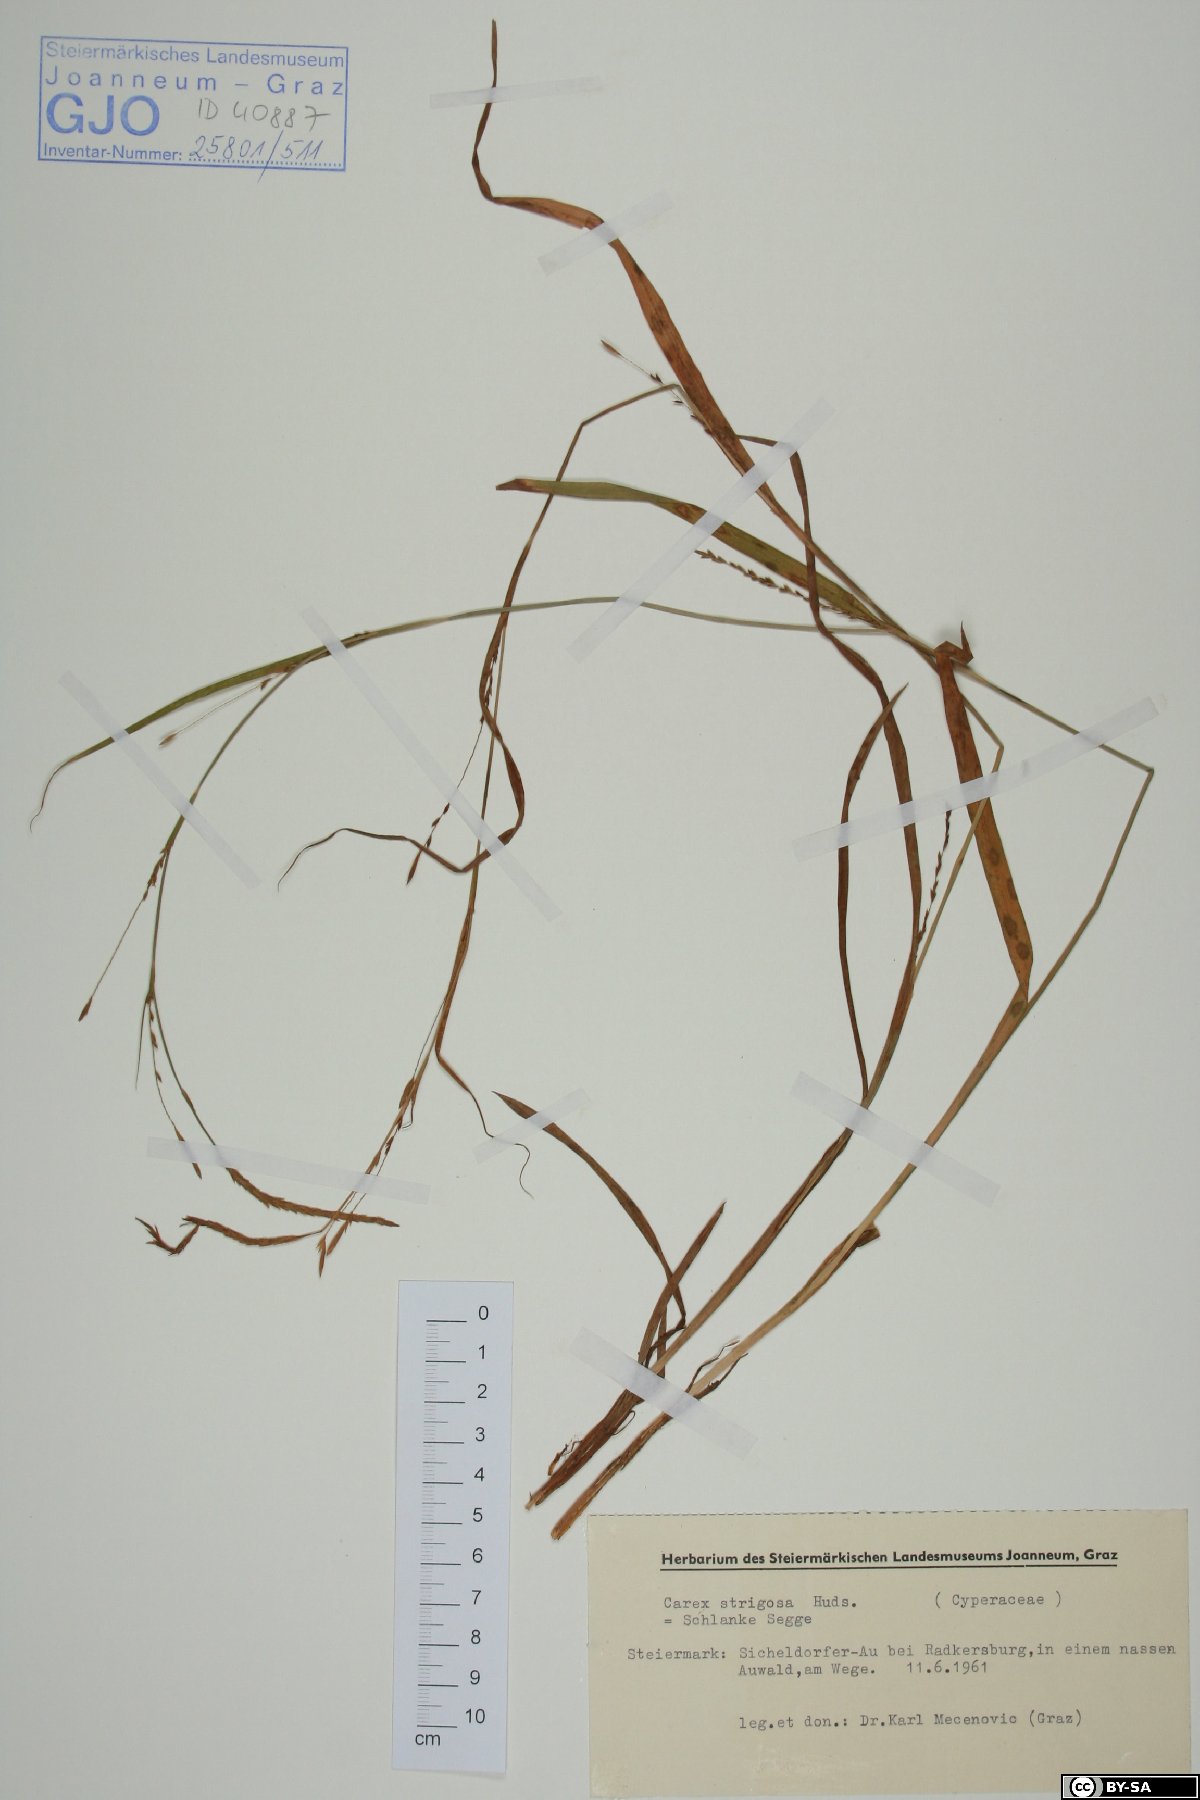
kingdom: Plantae
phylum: Tracheophyta
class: Liliopsida
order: Poales
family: Cyperaceae
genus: Carex
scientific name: Carex strigosa
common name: Thin-spiked wood-sedge
